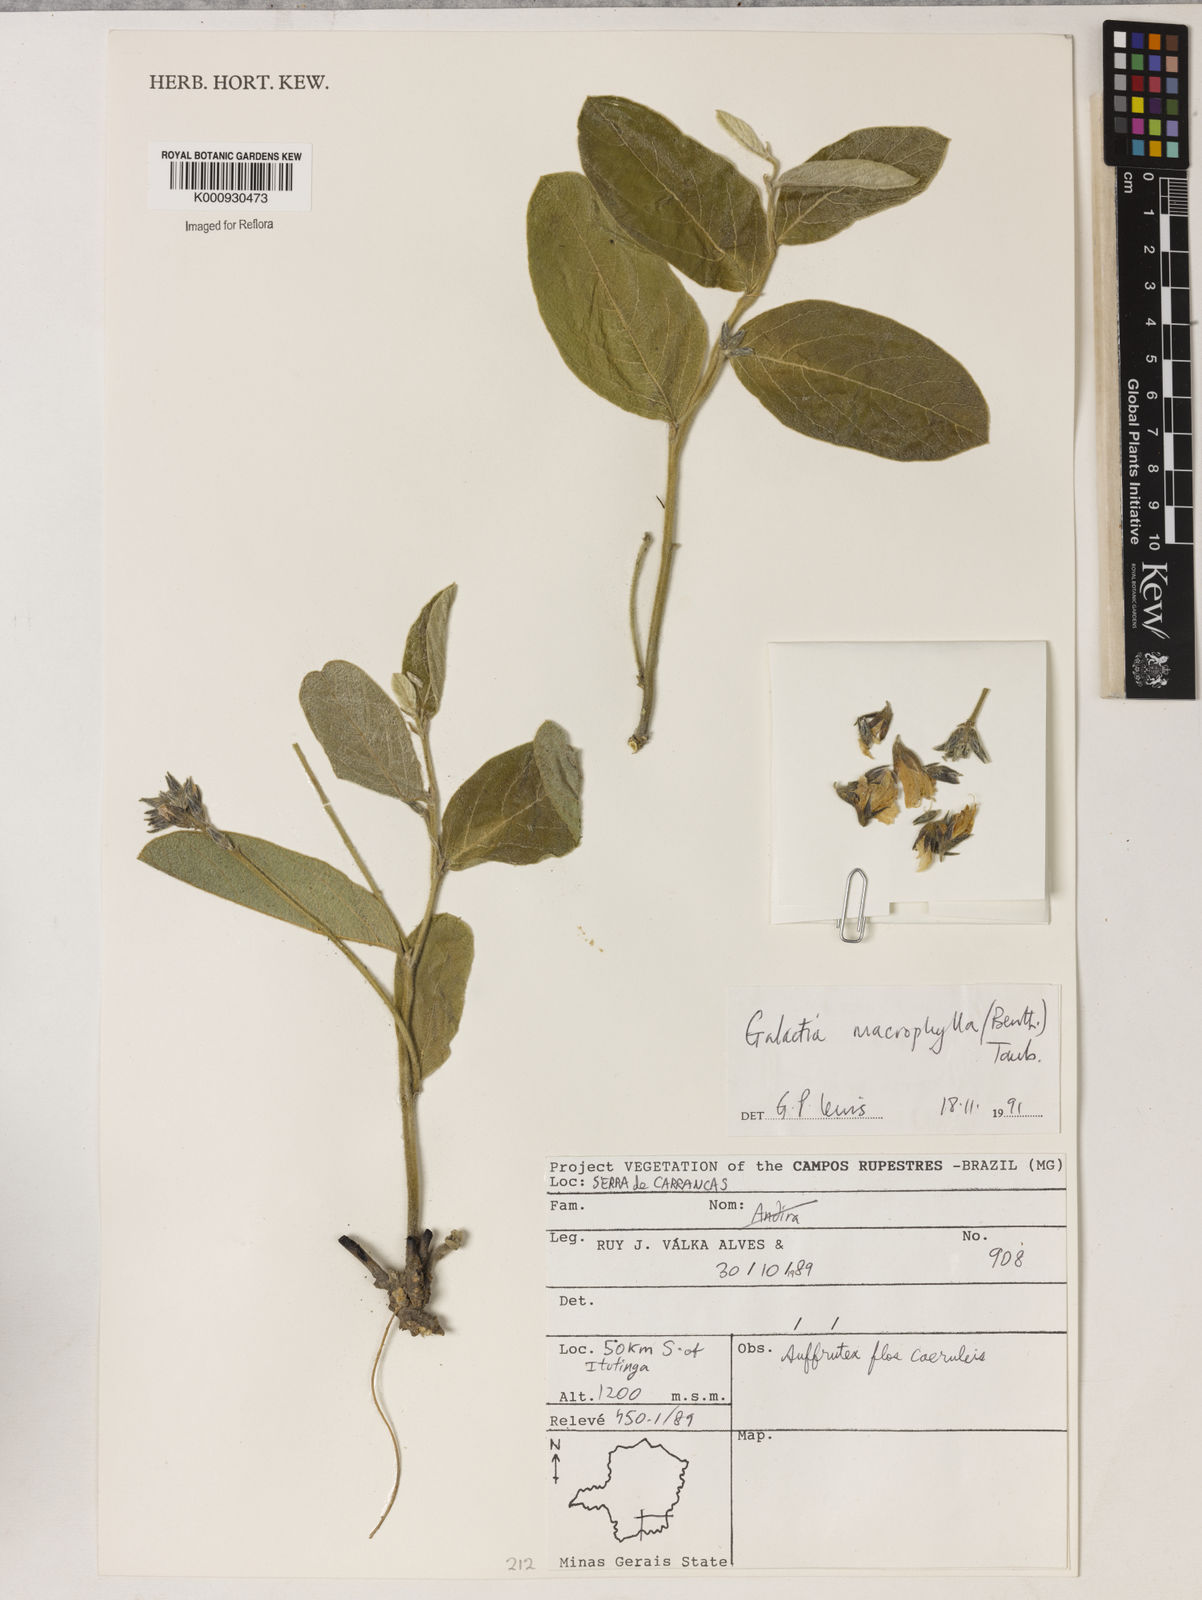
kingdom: Plantae
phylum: Tracheophyta
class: Magnoliopsida
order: Fabales
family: Fabaceae
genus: Cerradicola
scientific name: Cerradicola boavista
